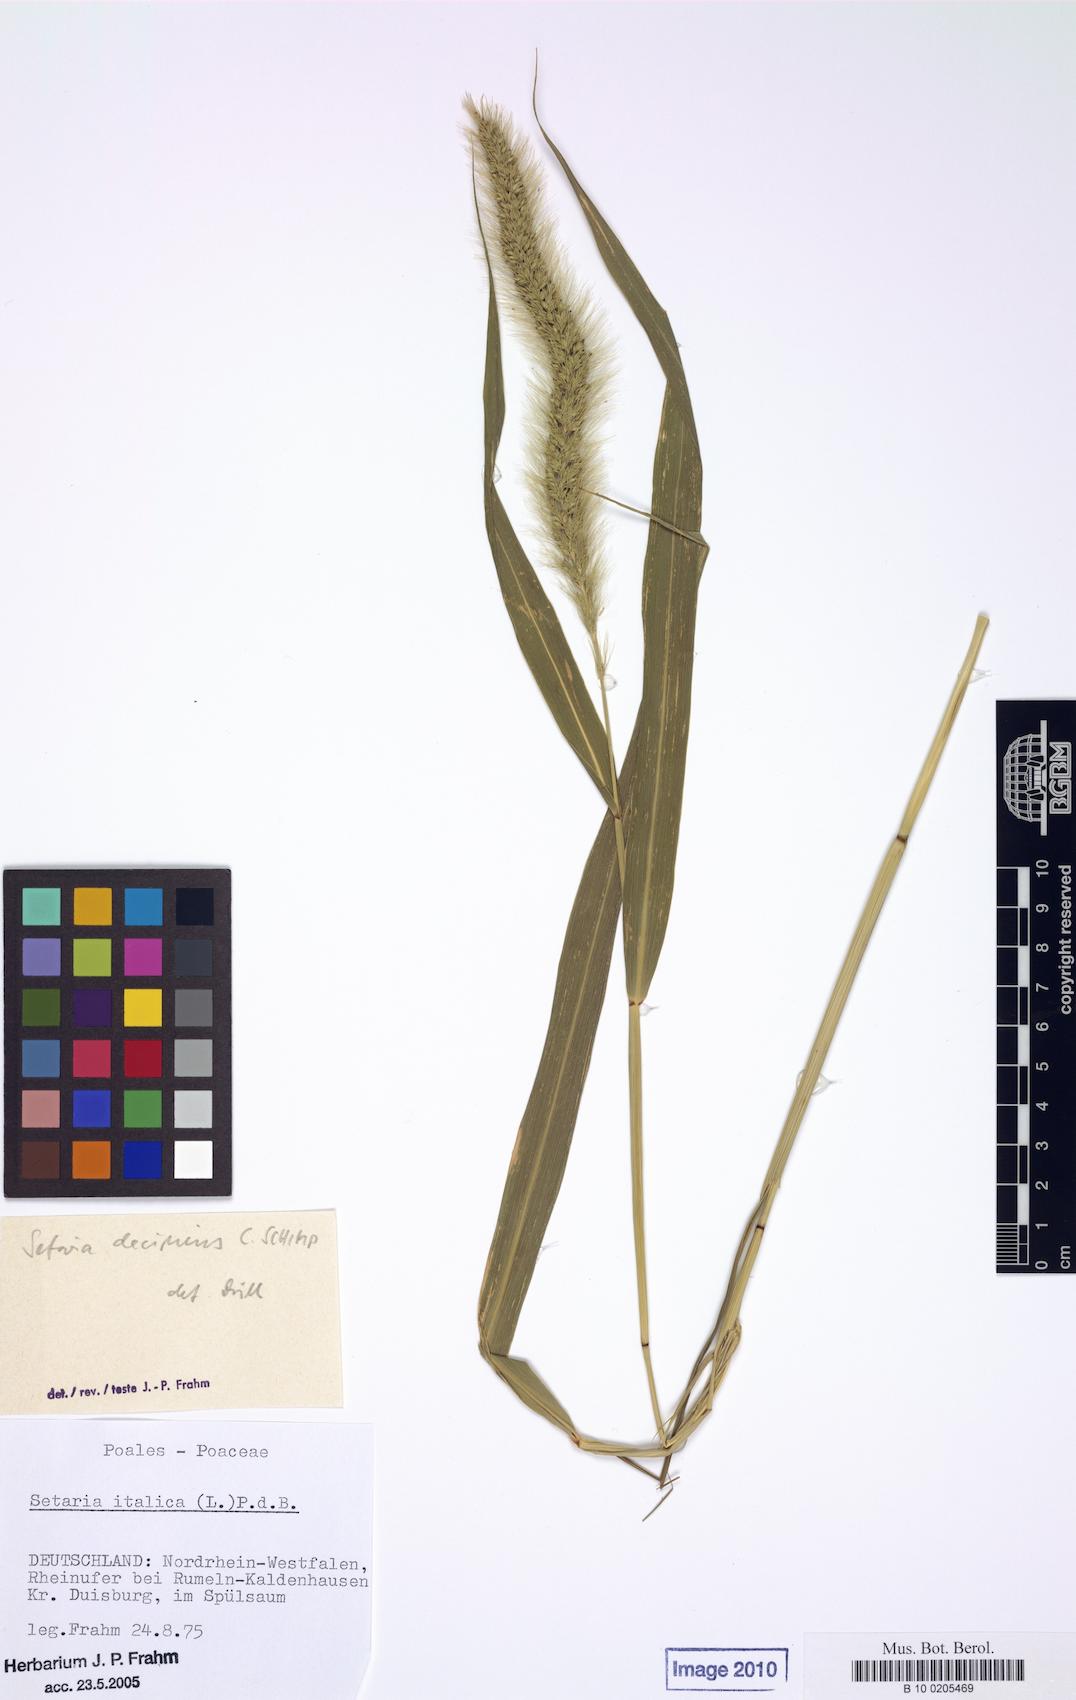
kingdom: Plantae
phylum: Tracheophyta
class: Liliopsida
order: Poales
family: Poaceae
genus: Setaria
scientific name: Setaria verticillata
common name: Hooked bristlegrass
